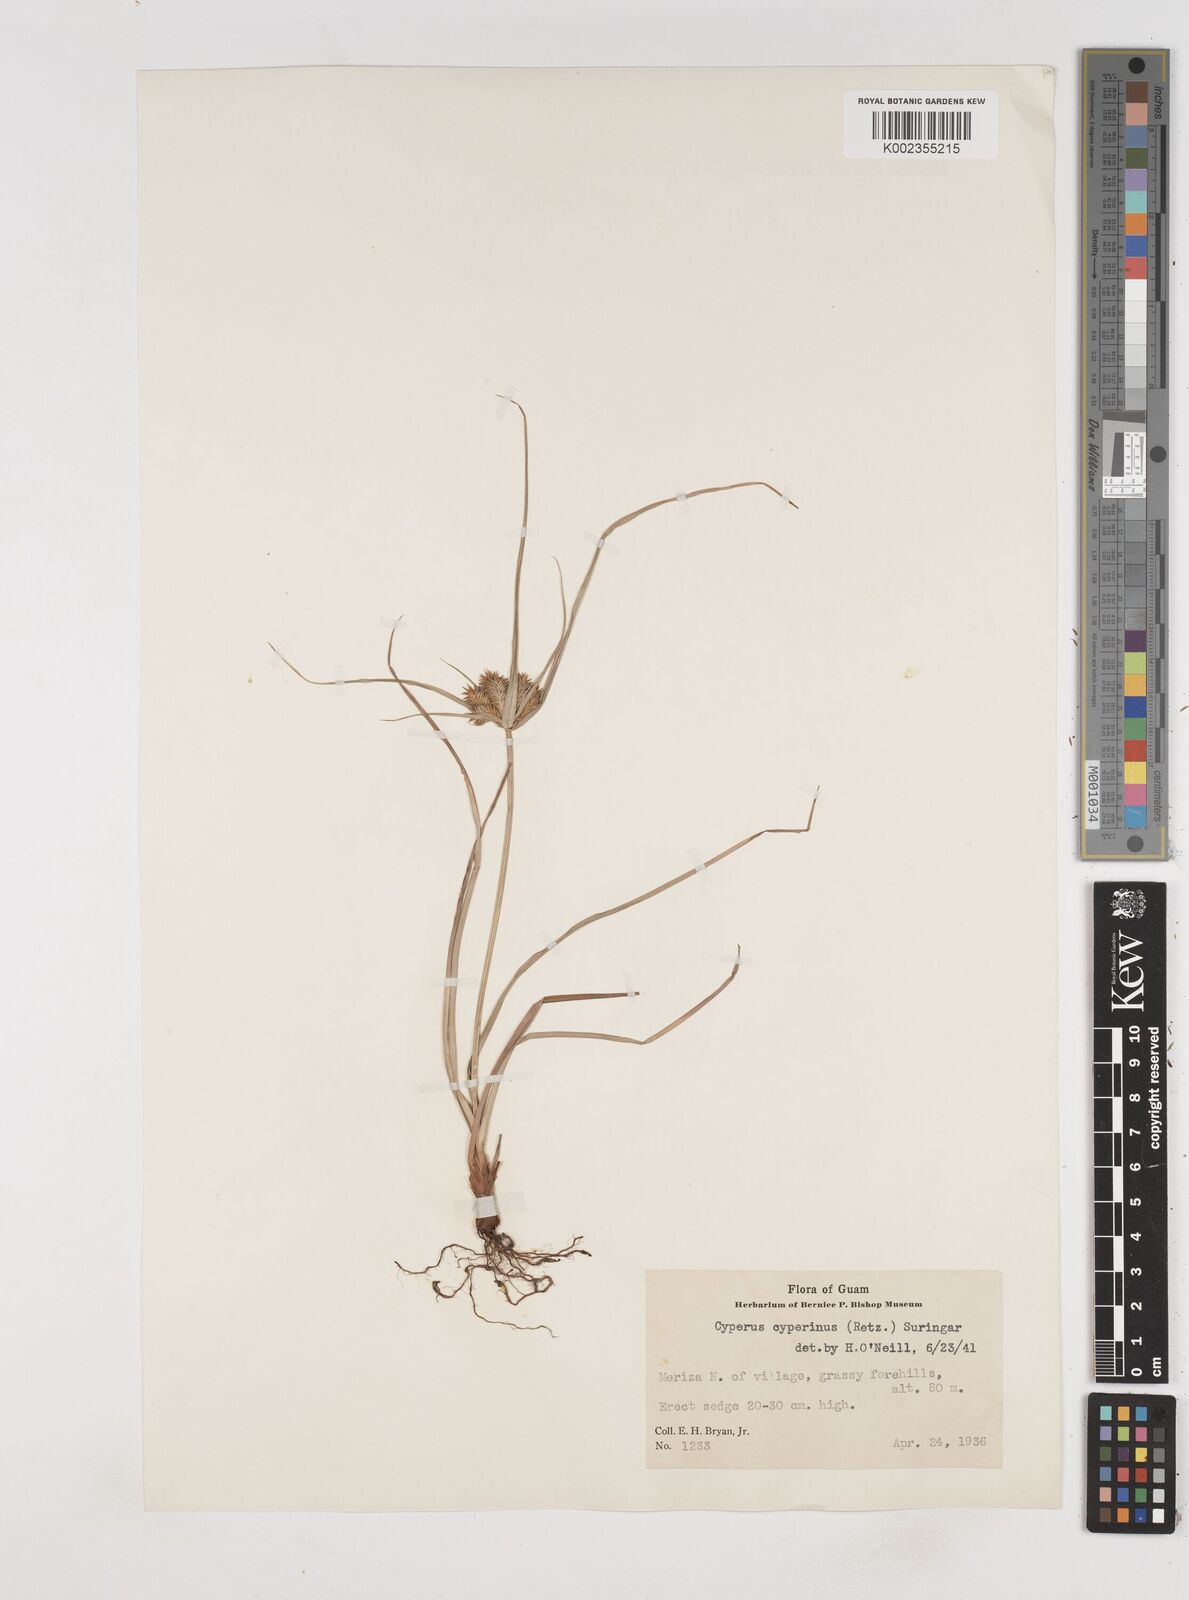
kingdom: Plantae
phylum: Tracheophyta
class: Liliopsida
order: Poales
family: Cyperaceae
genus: Cyperus
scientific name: Cyperus cyperinus
